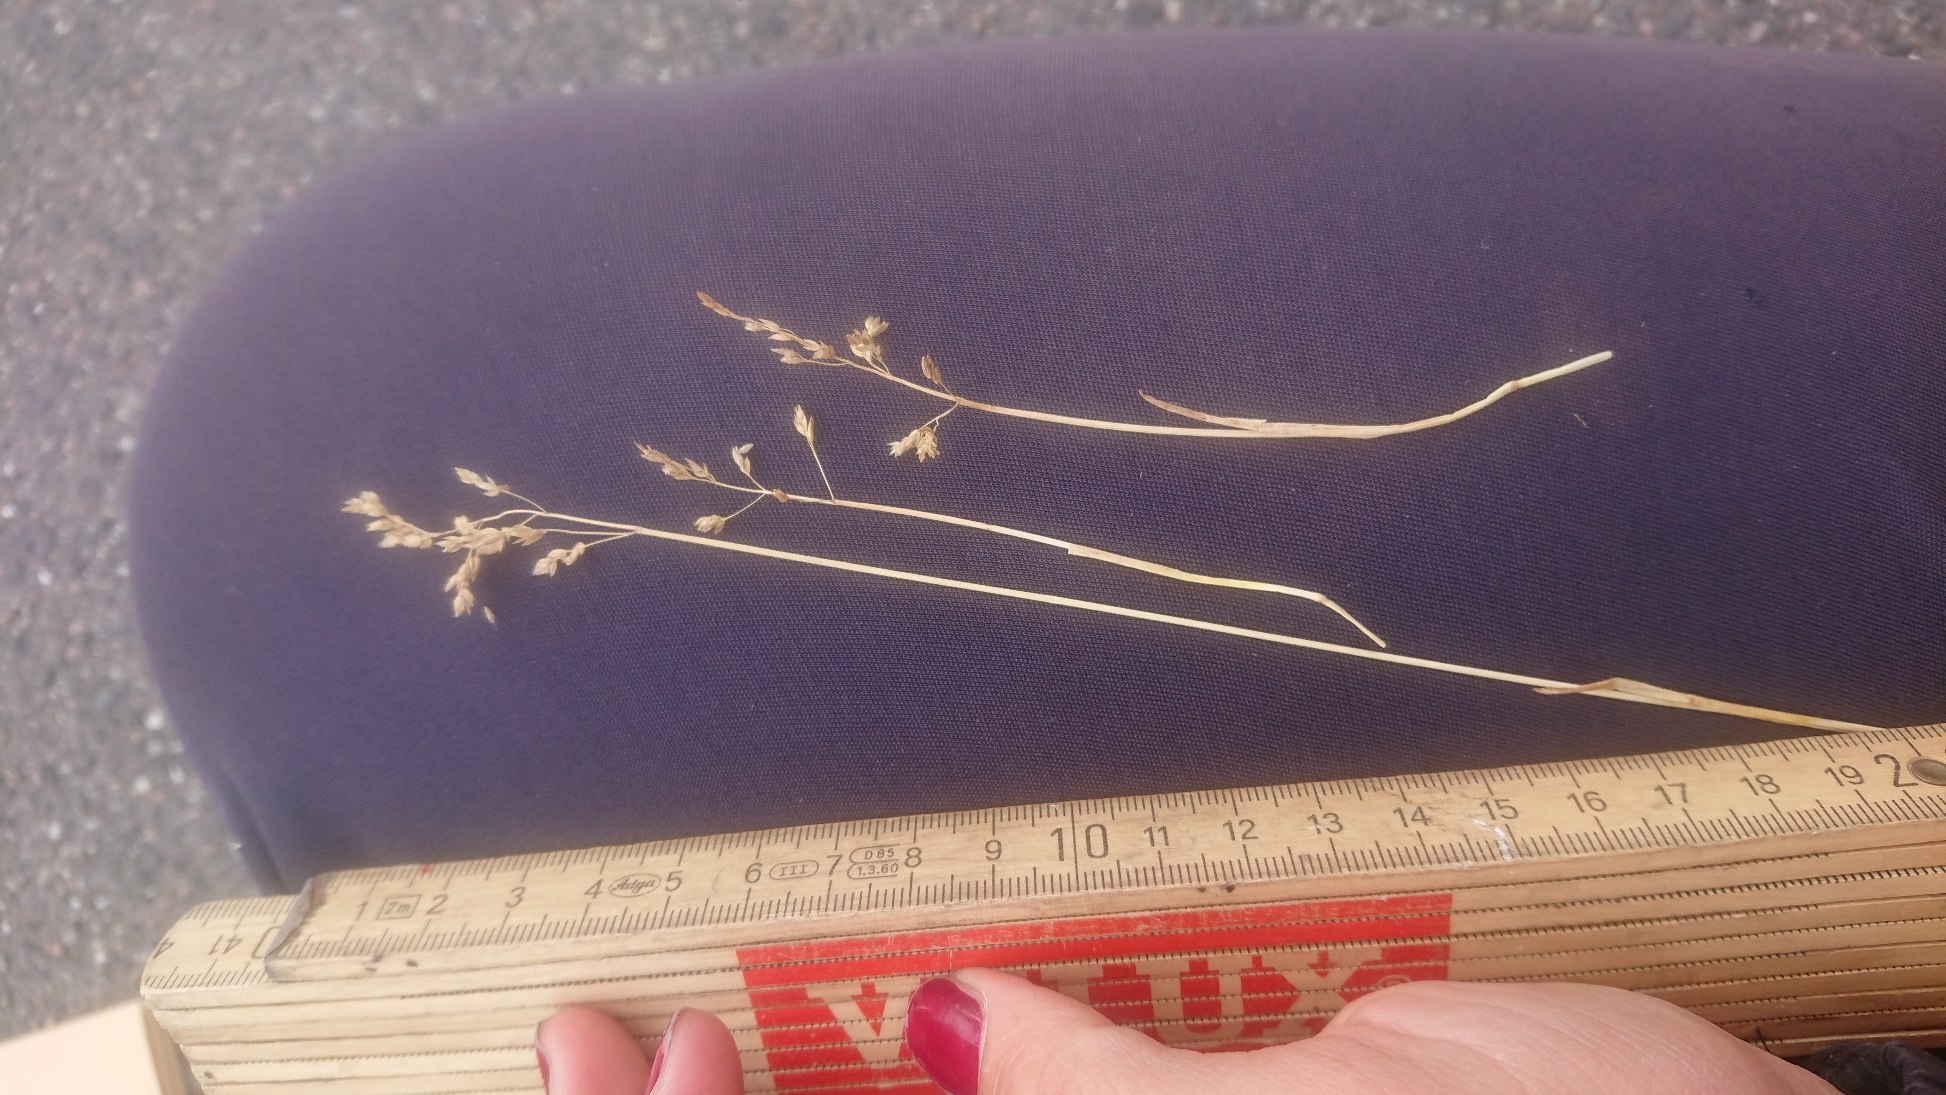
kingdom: Plantae
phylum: Tracheophyta
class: Liliopsida
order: Poales
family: Poaceae
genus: Poa
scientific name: Poa pratensis
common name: Eng-rapgræs
